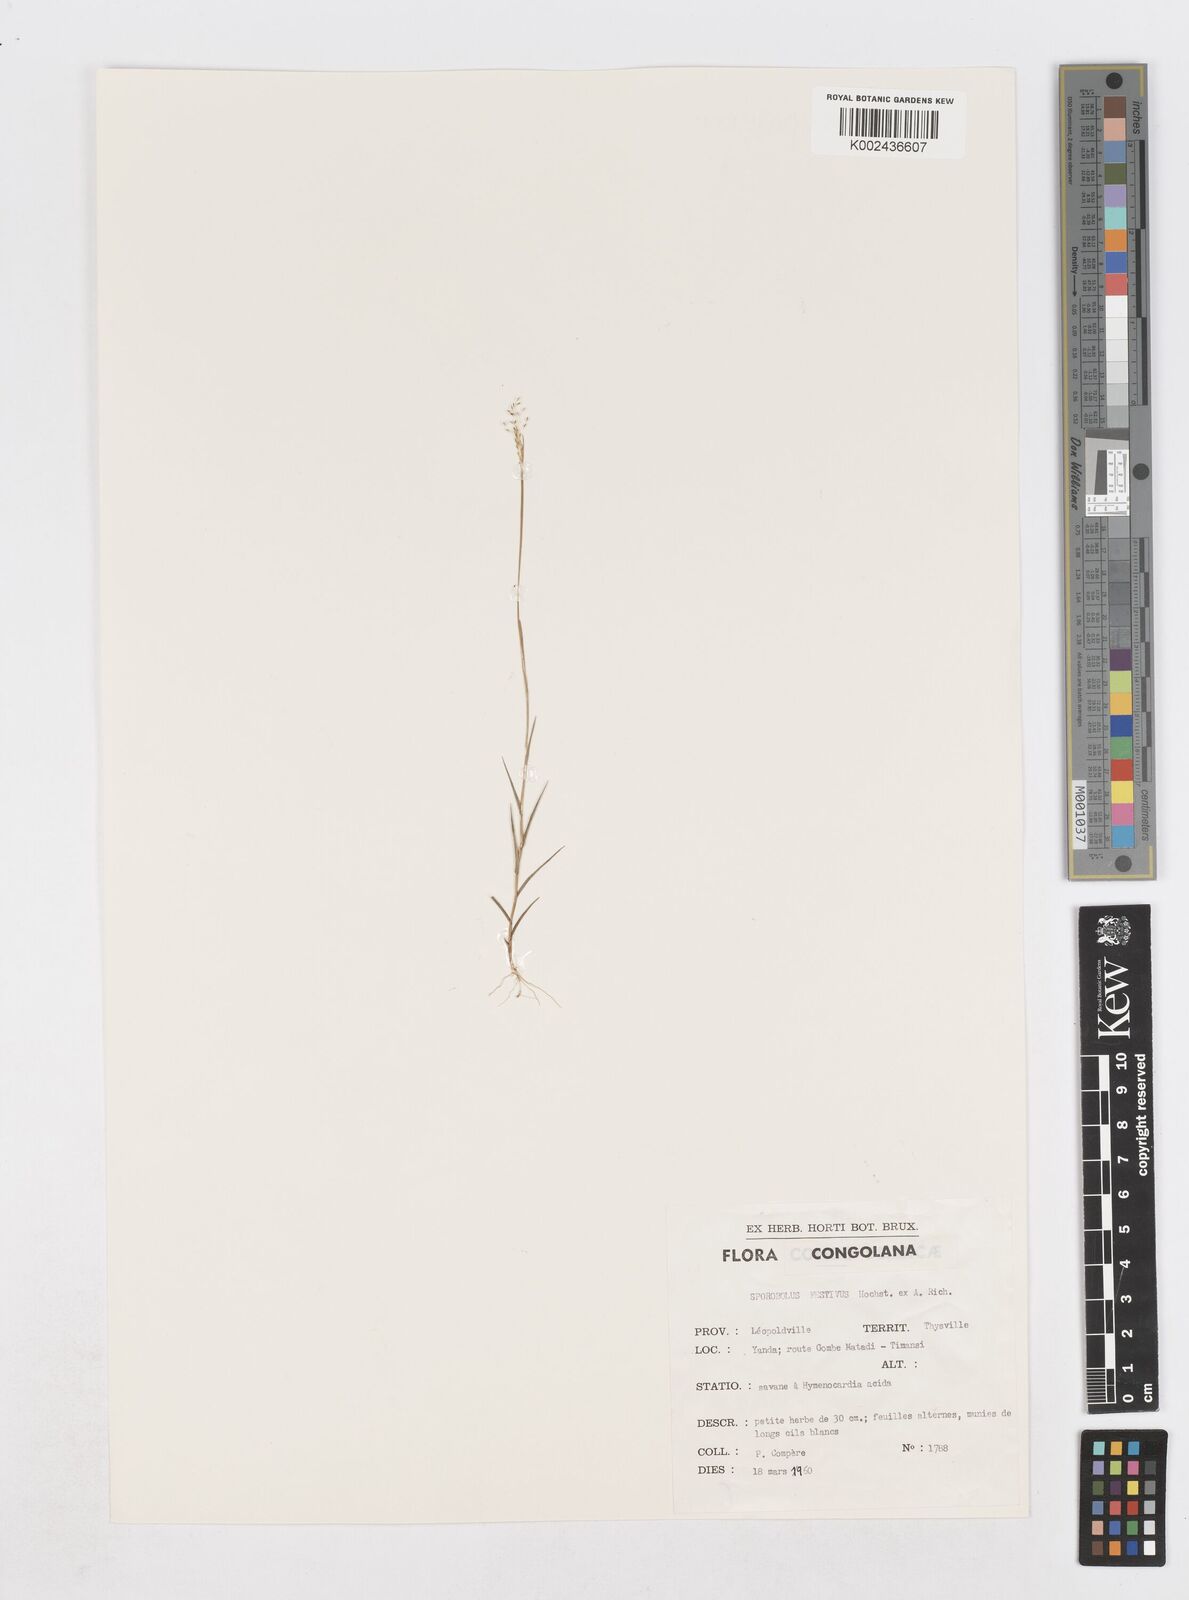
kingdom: Plantae
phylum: Tracheophyta
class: Liliopsida
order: Poales
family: Poaceae
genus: Sporobolus
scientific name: Sporobolus paniculatus
